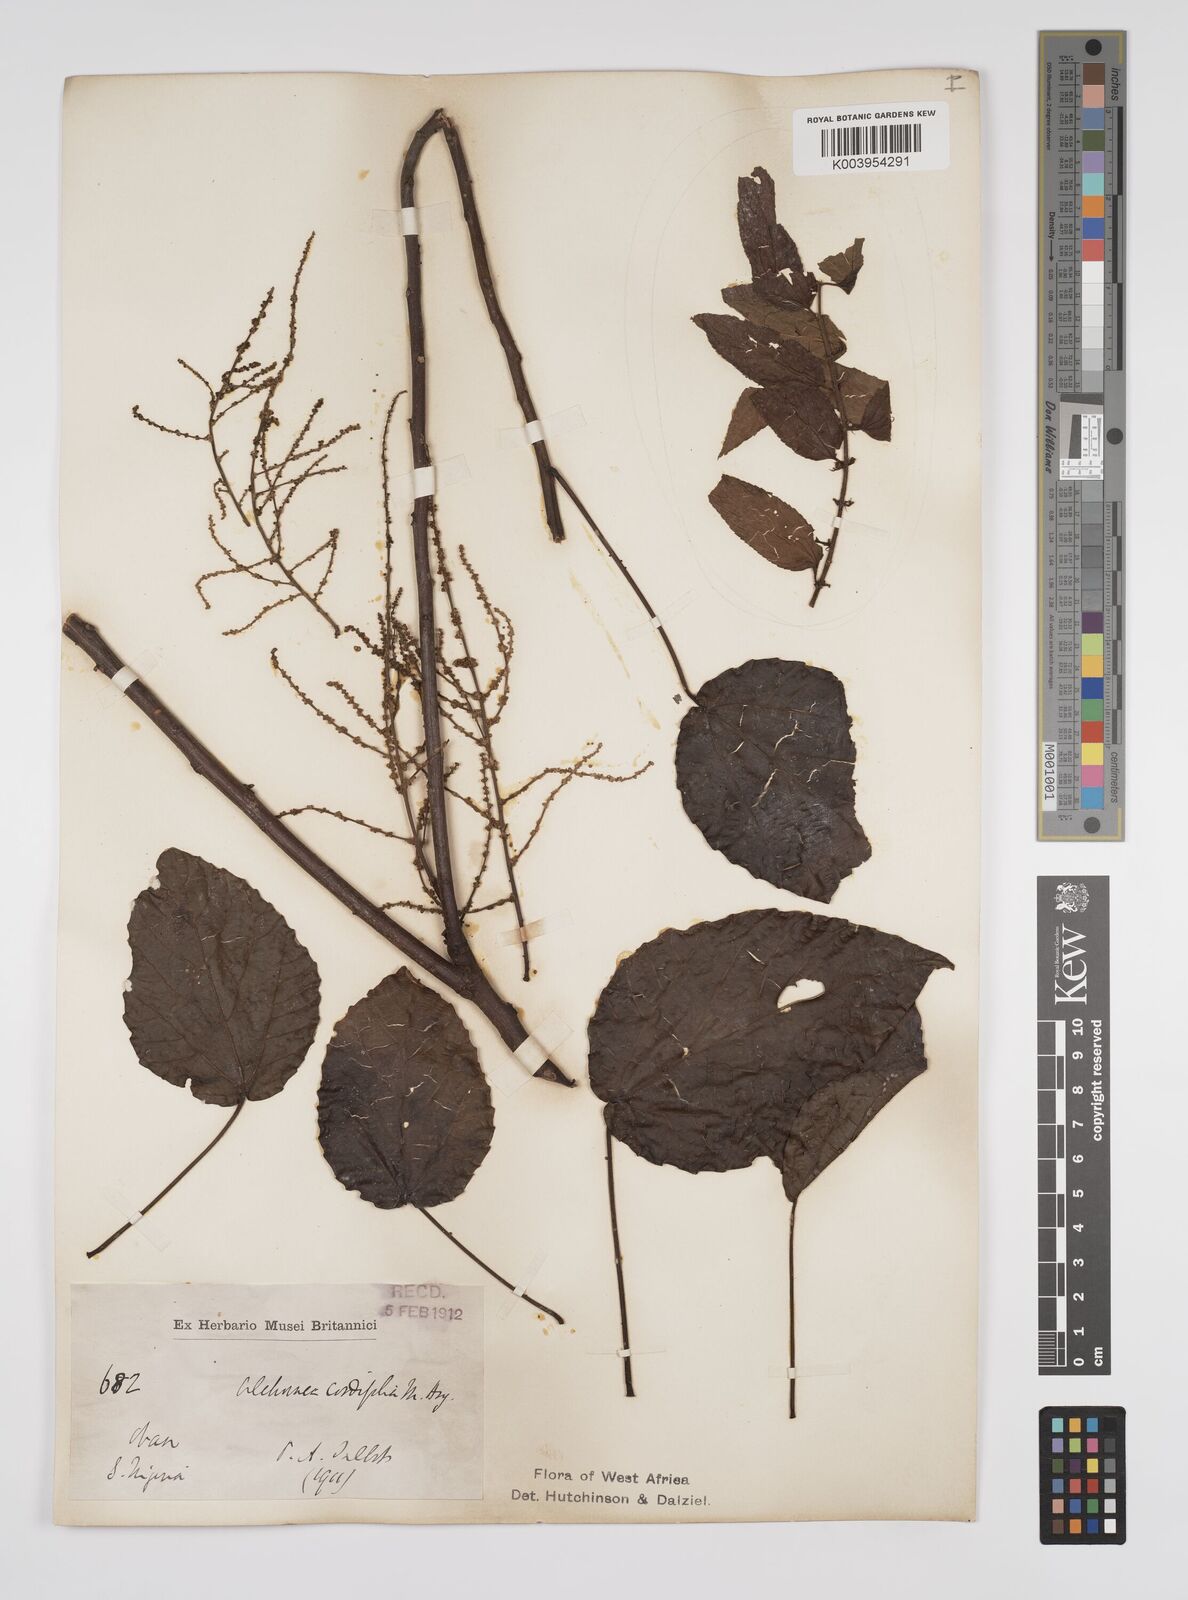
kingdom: Plantae
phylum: Tracheophyta
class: Magnoliopsida
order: Malpighiales
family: Euphorbiaceae
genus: Alchornea
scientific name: Alchornea cordifolia
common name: Christmasbush
